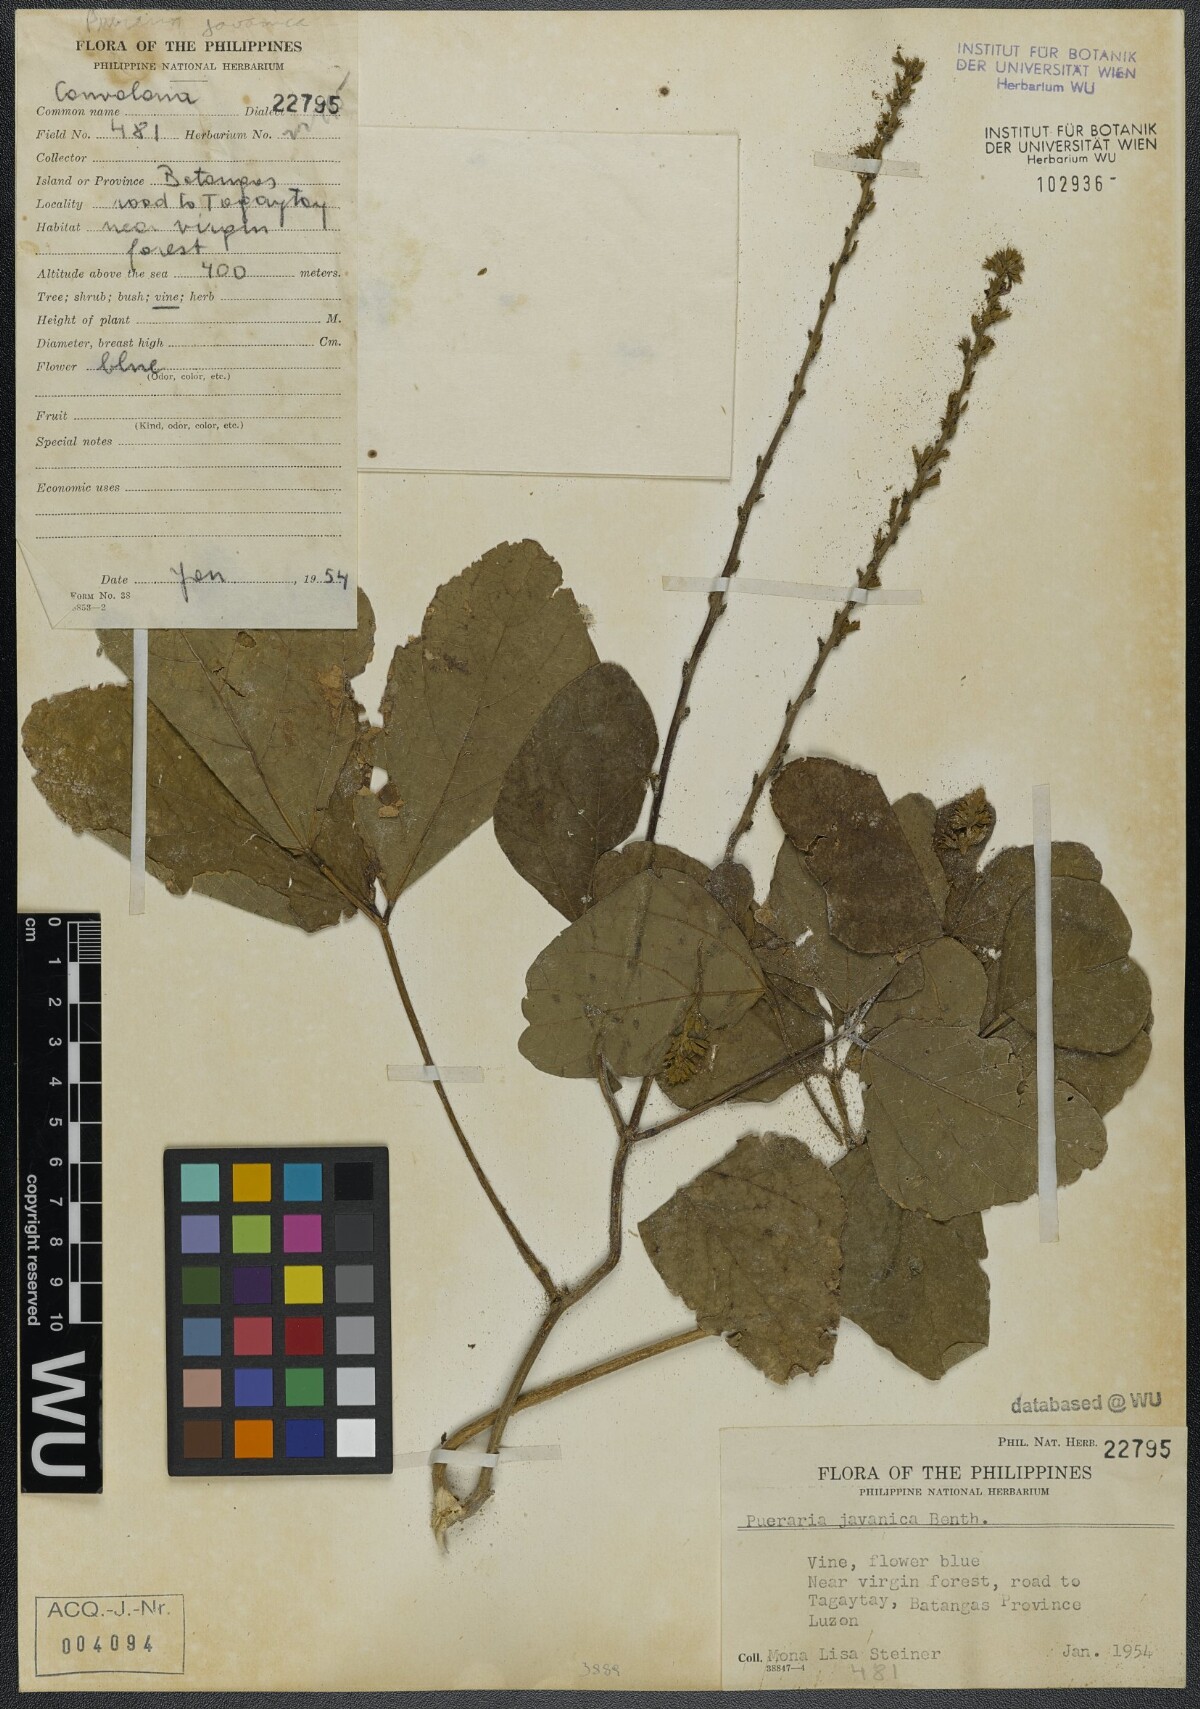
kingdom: Plantae
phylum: Tracheophyta
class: Magnoliopsida
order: Fabales
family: Fabaceae
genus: Neustanthus
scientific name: Neustanthus phaseoloides
